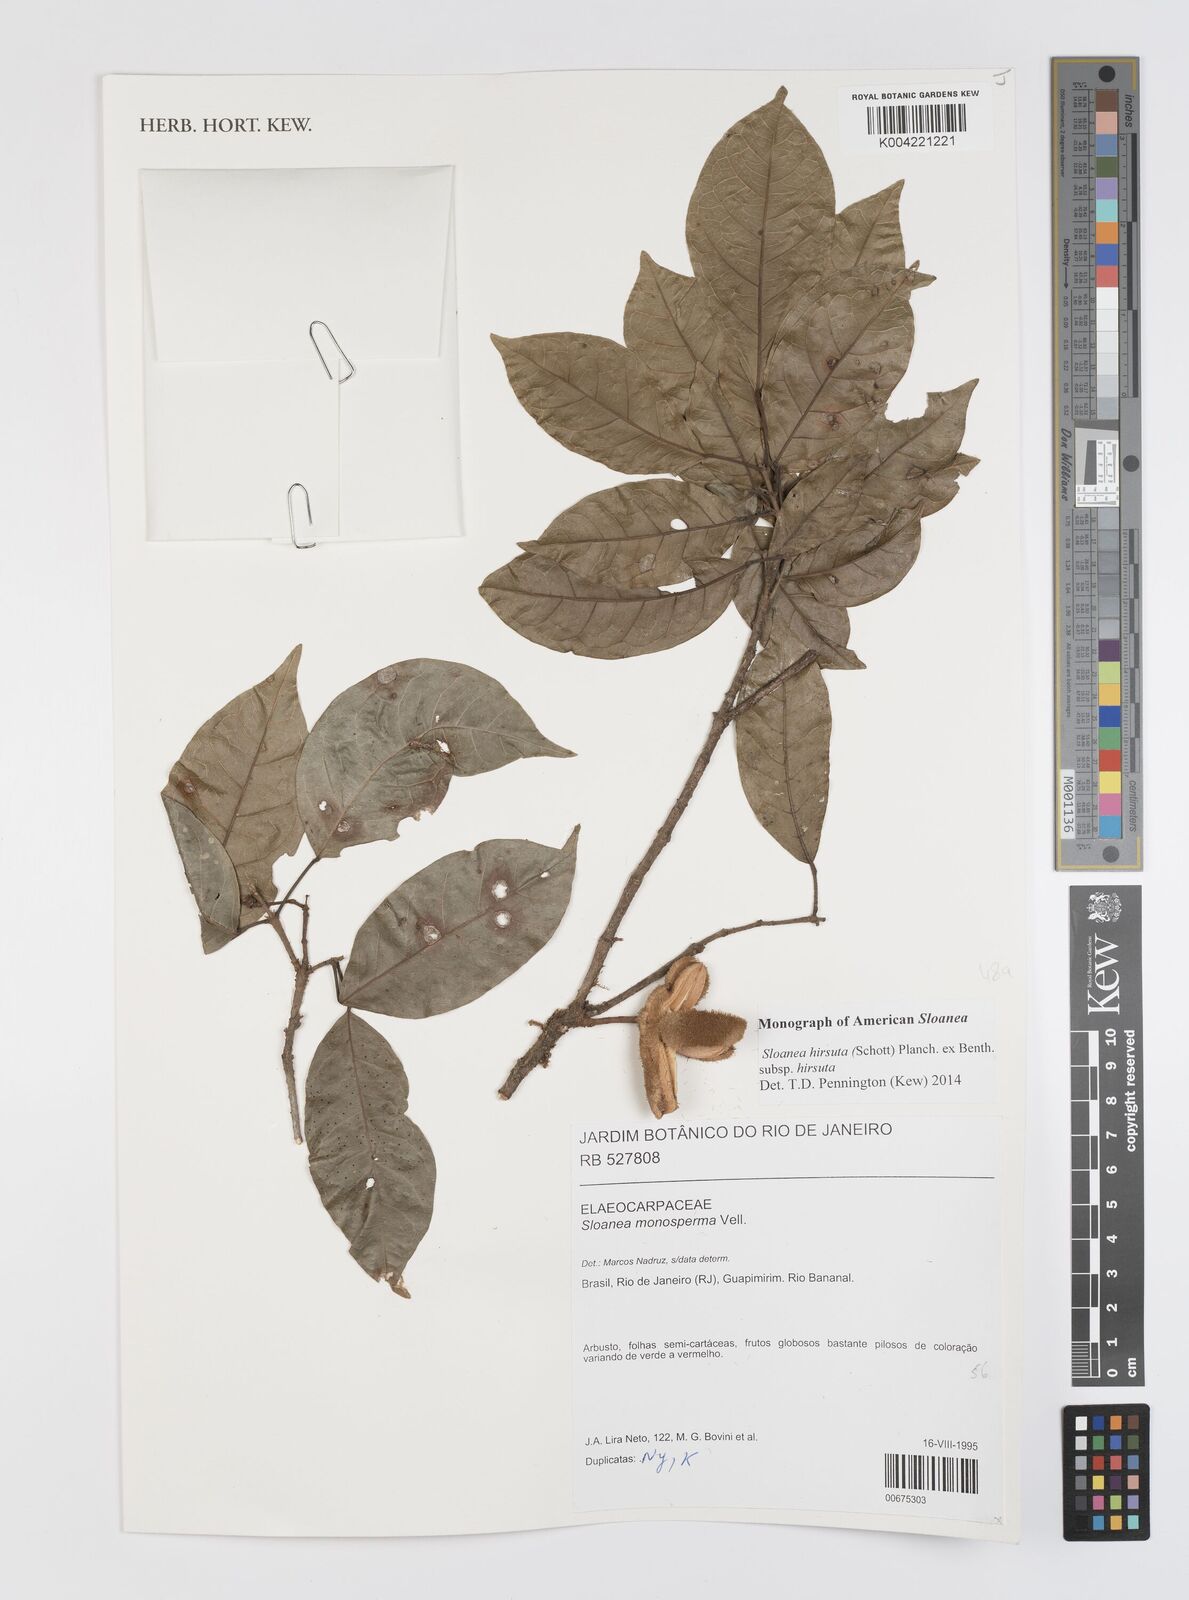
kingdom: Plantae
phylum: Tracheophyta
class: Magnoliopsida
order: Oxalidales
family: Elaeocarpaceae
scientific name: Elaeocarpaceae
